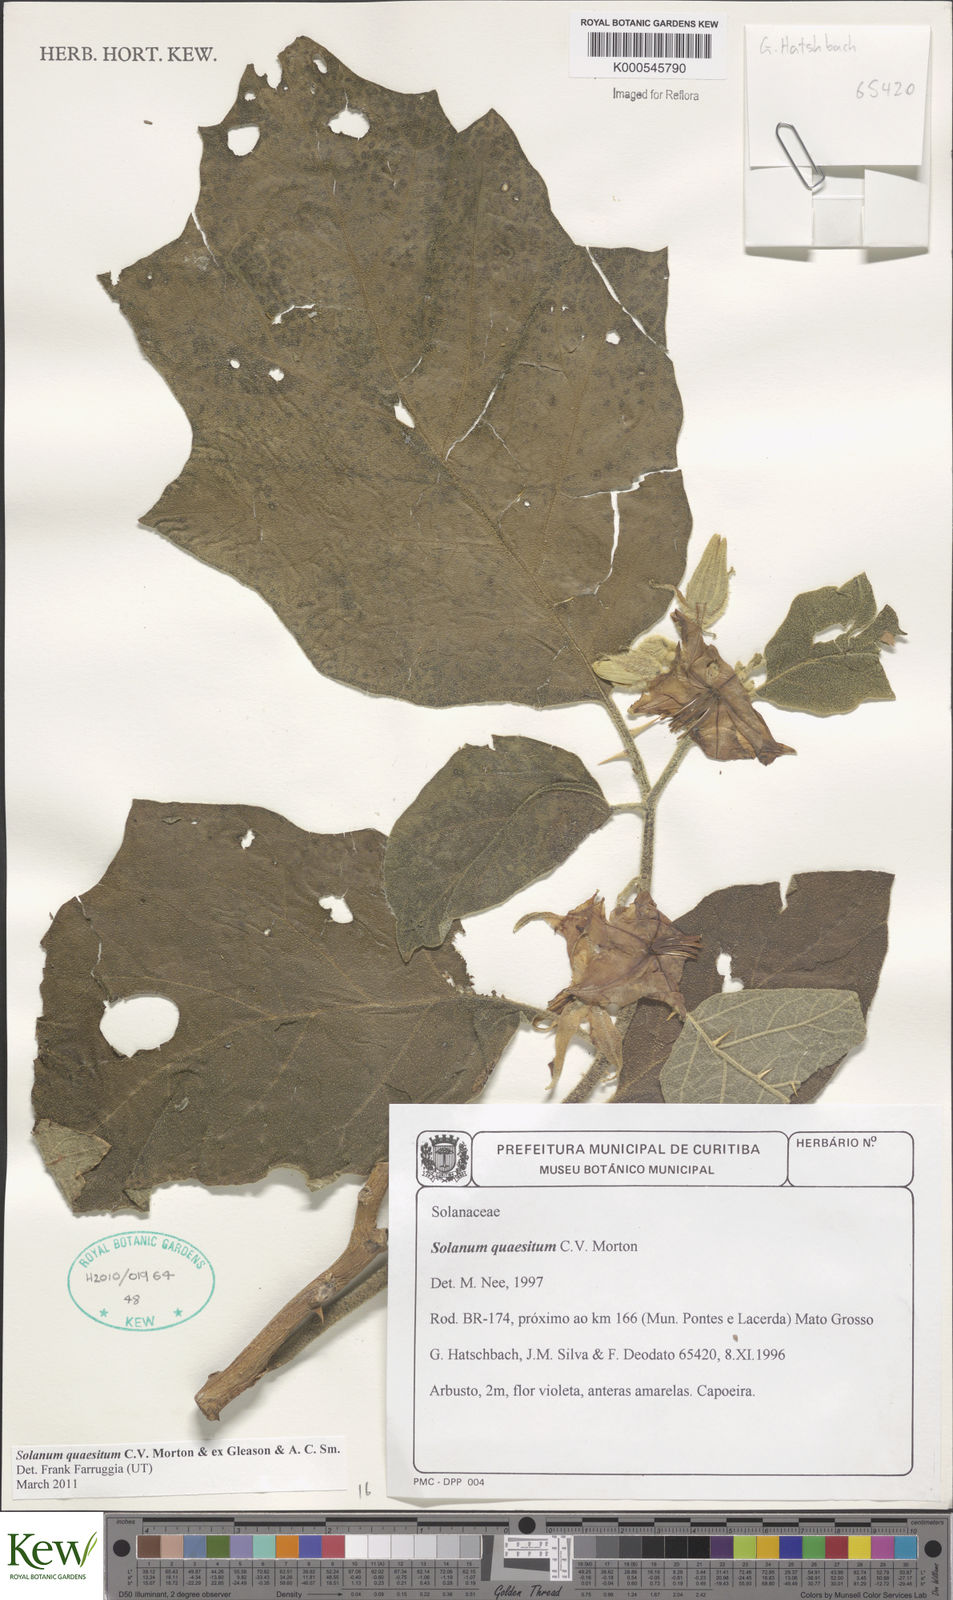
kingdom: Plantae
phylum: Tracheophyta
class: Magnoliopsida
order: Solanales
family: Solanaceae
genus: Solanum
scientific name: Solanum
